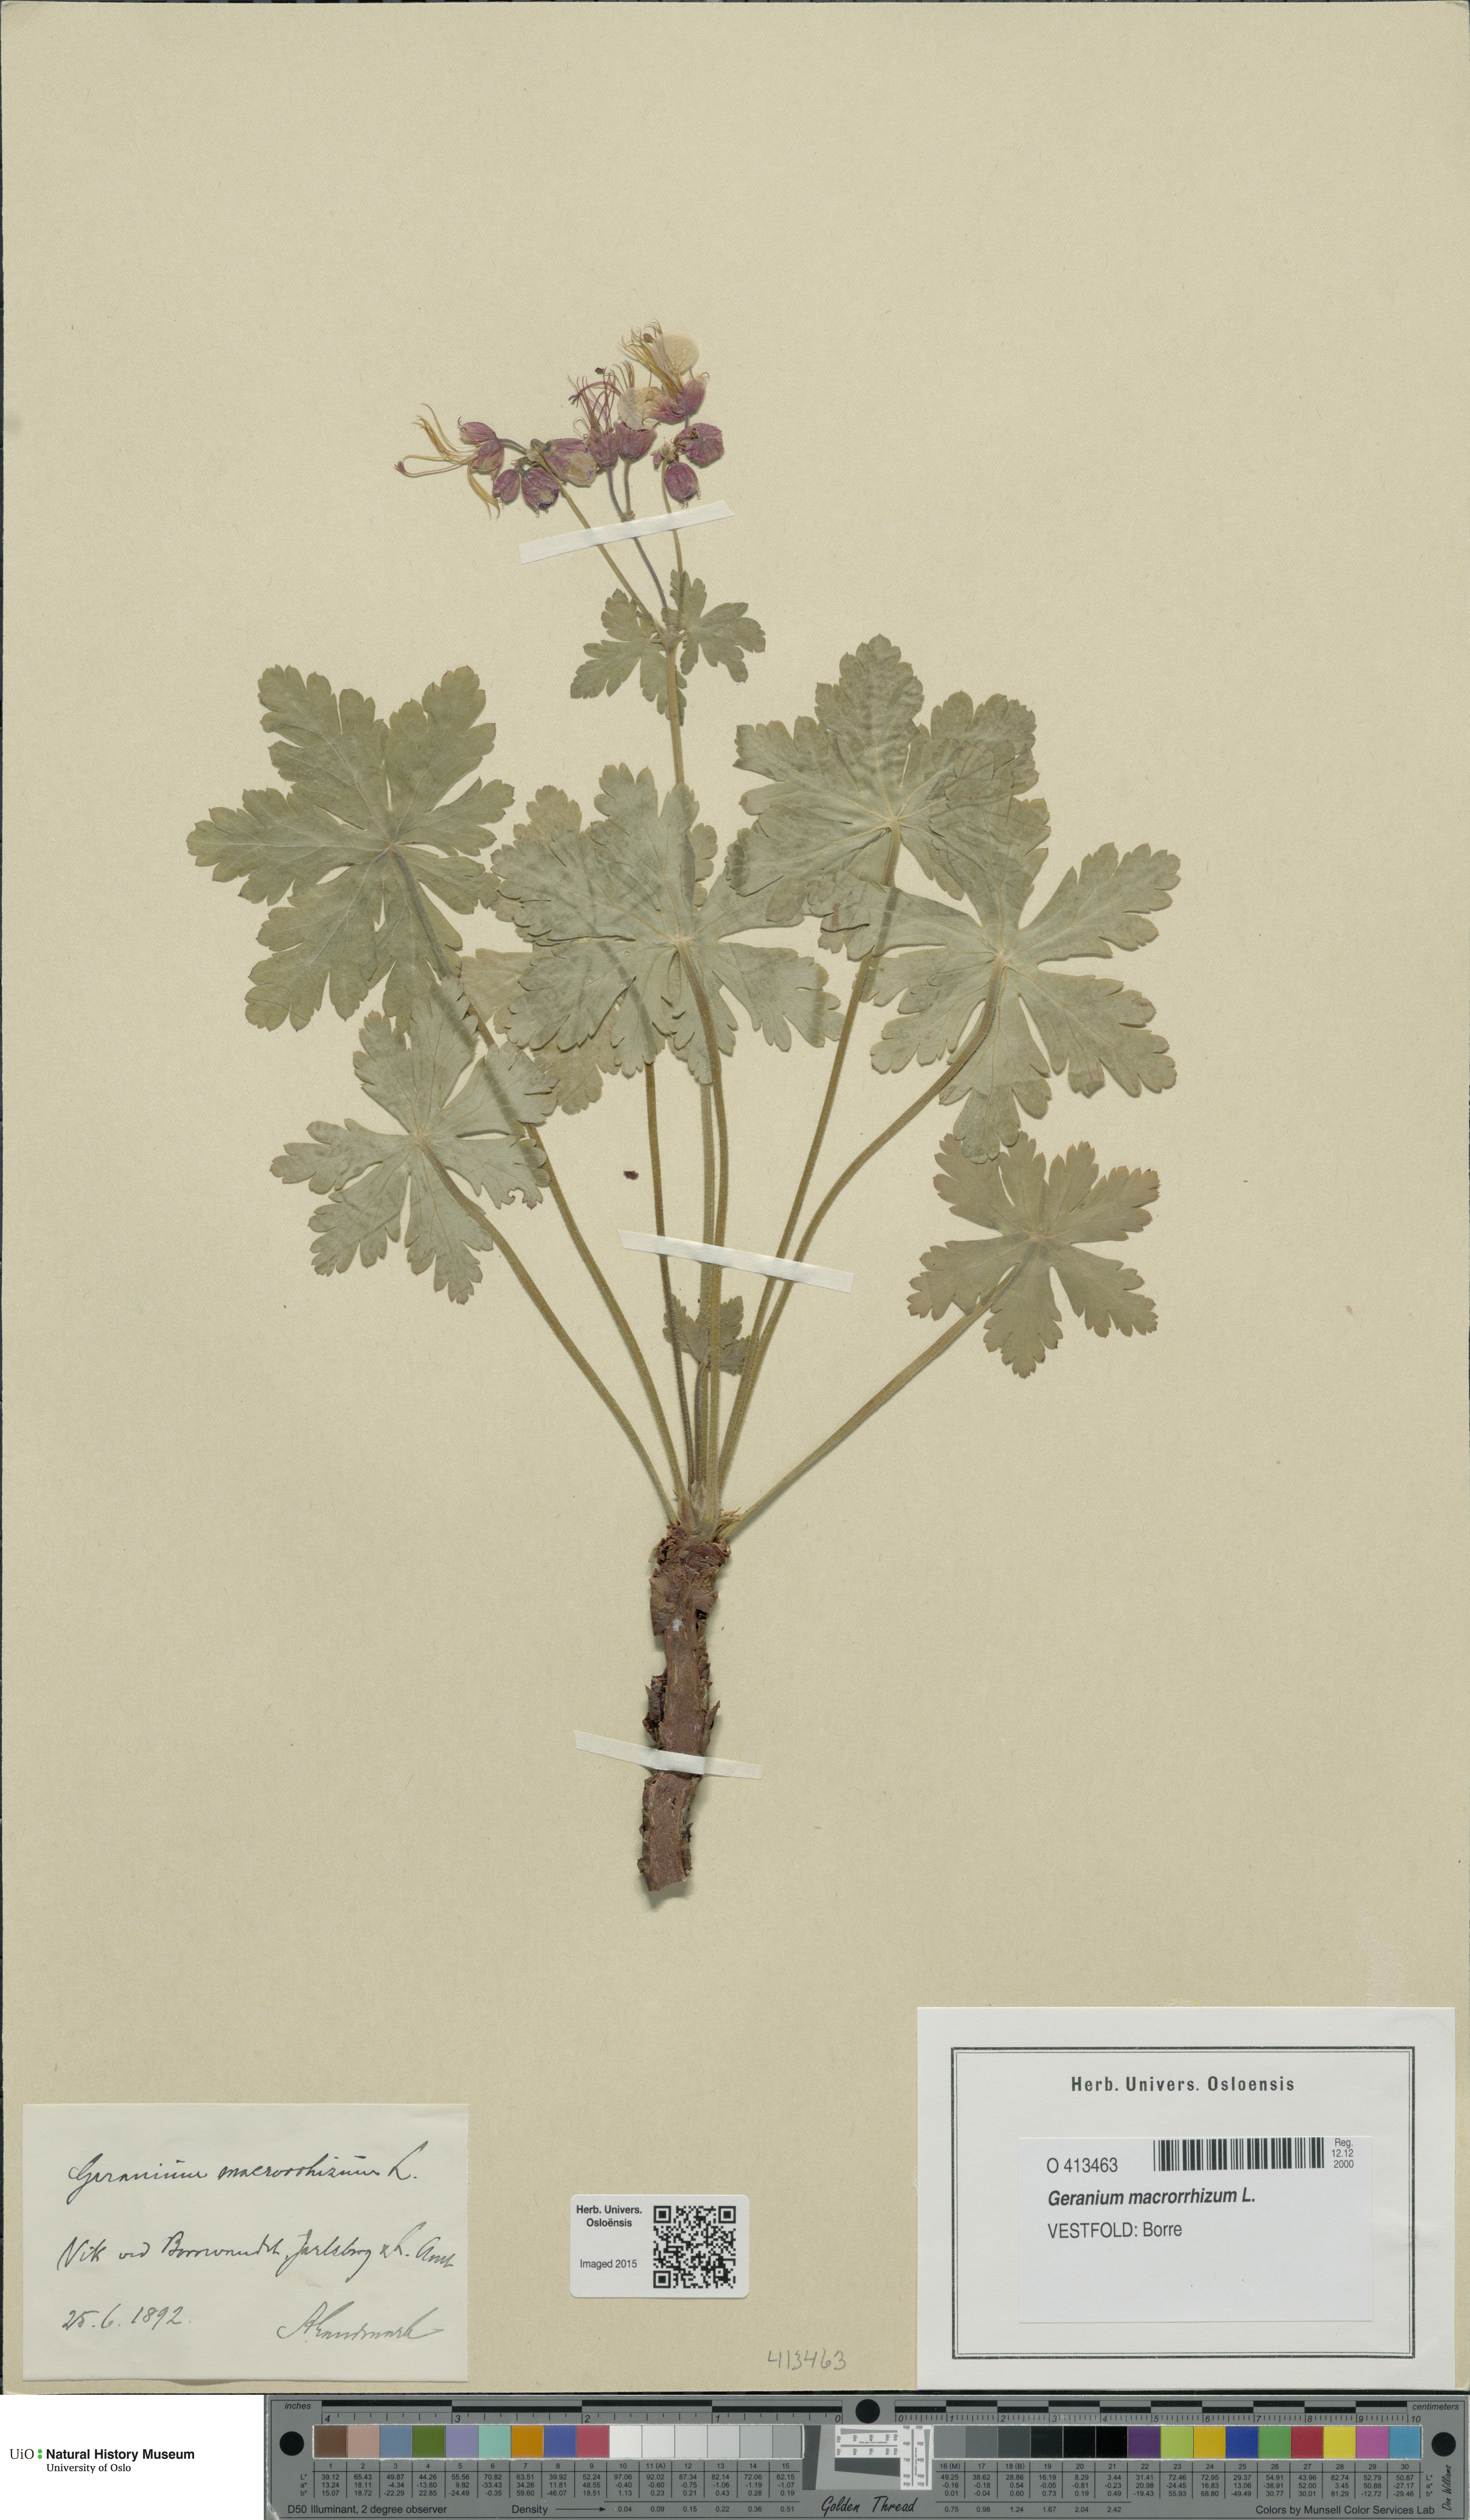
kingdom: Plantae
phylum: Tracheophyta
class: Magnoliopsida
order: Geraniales
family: Geraniaceae
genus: Geranium
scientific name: Geranium macrorrhizum
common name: Rock crane's-bill
